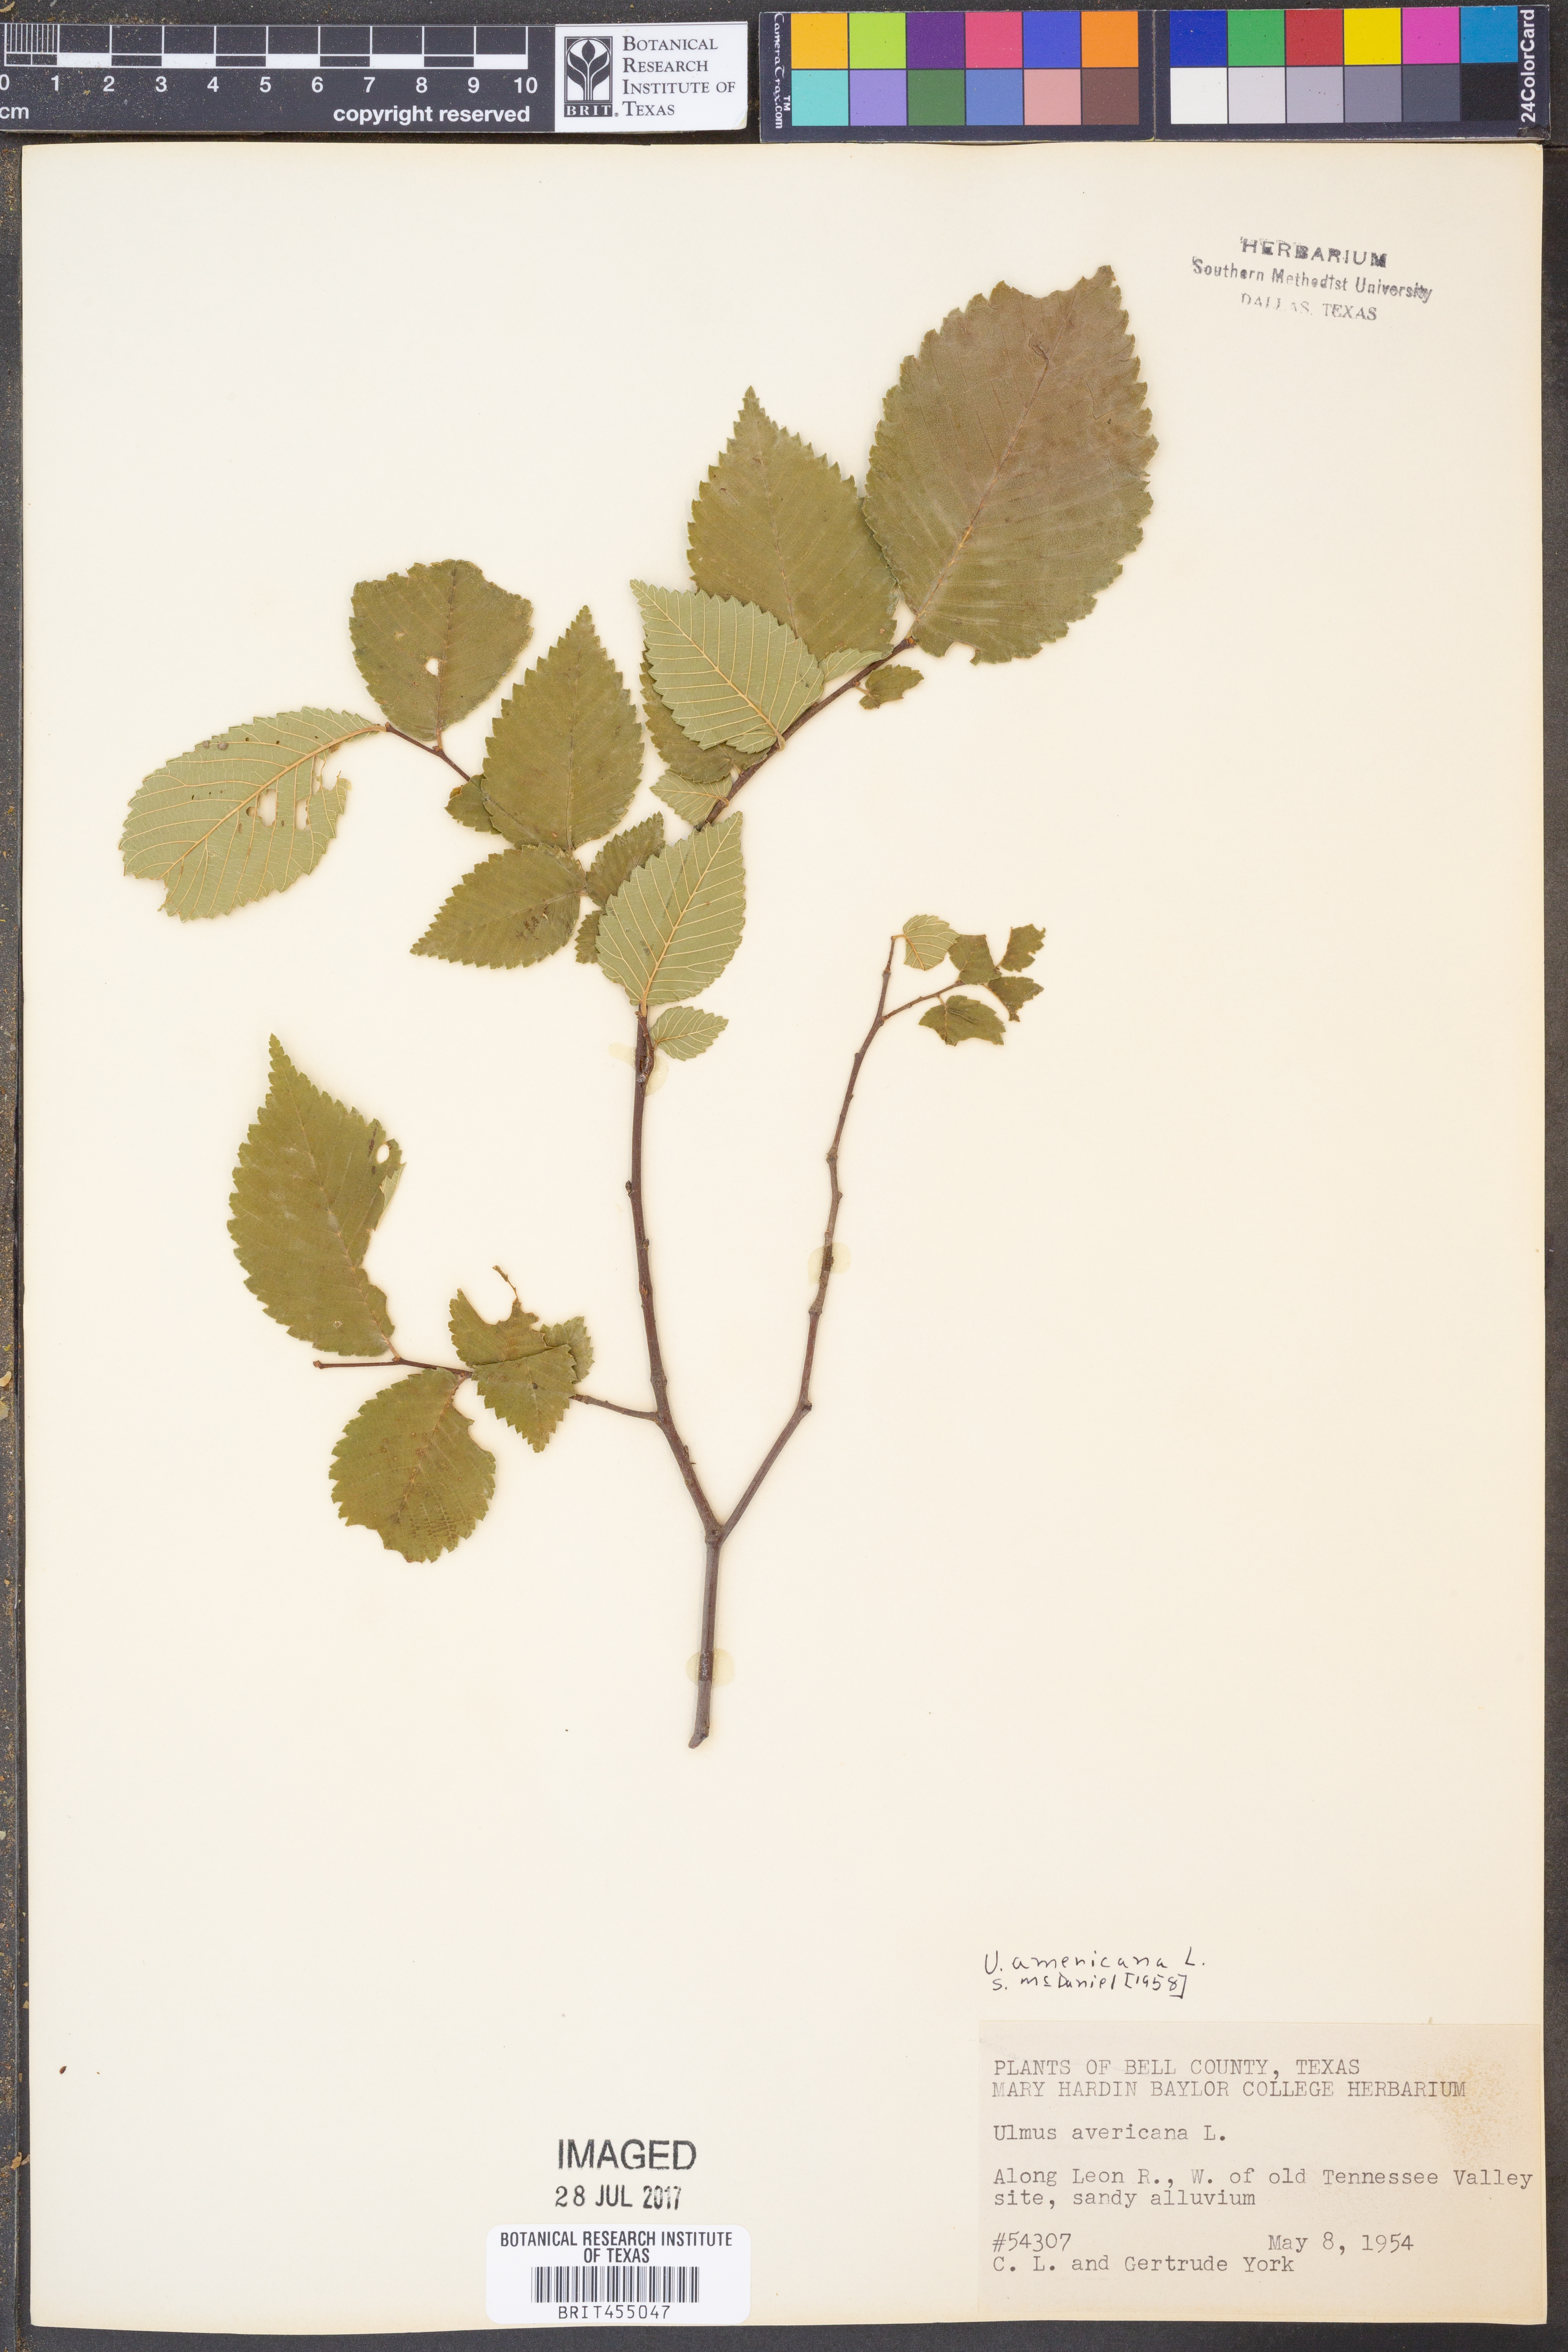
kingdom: Plantae
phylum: Tracheophyta
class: Magnoliopsida
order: Rosales
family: Ulmaceae
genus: Ulmus
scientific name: Ulmus americana
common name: American elm
